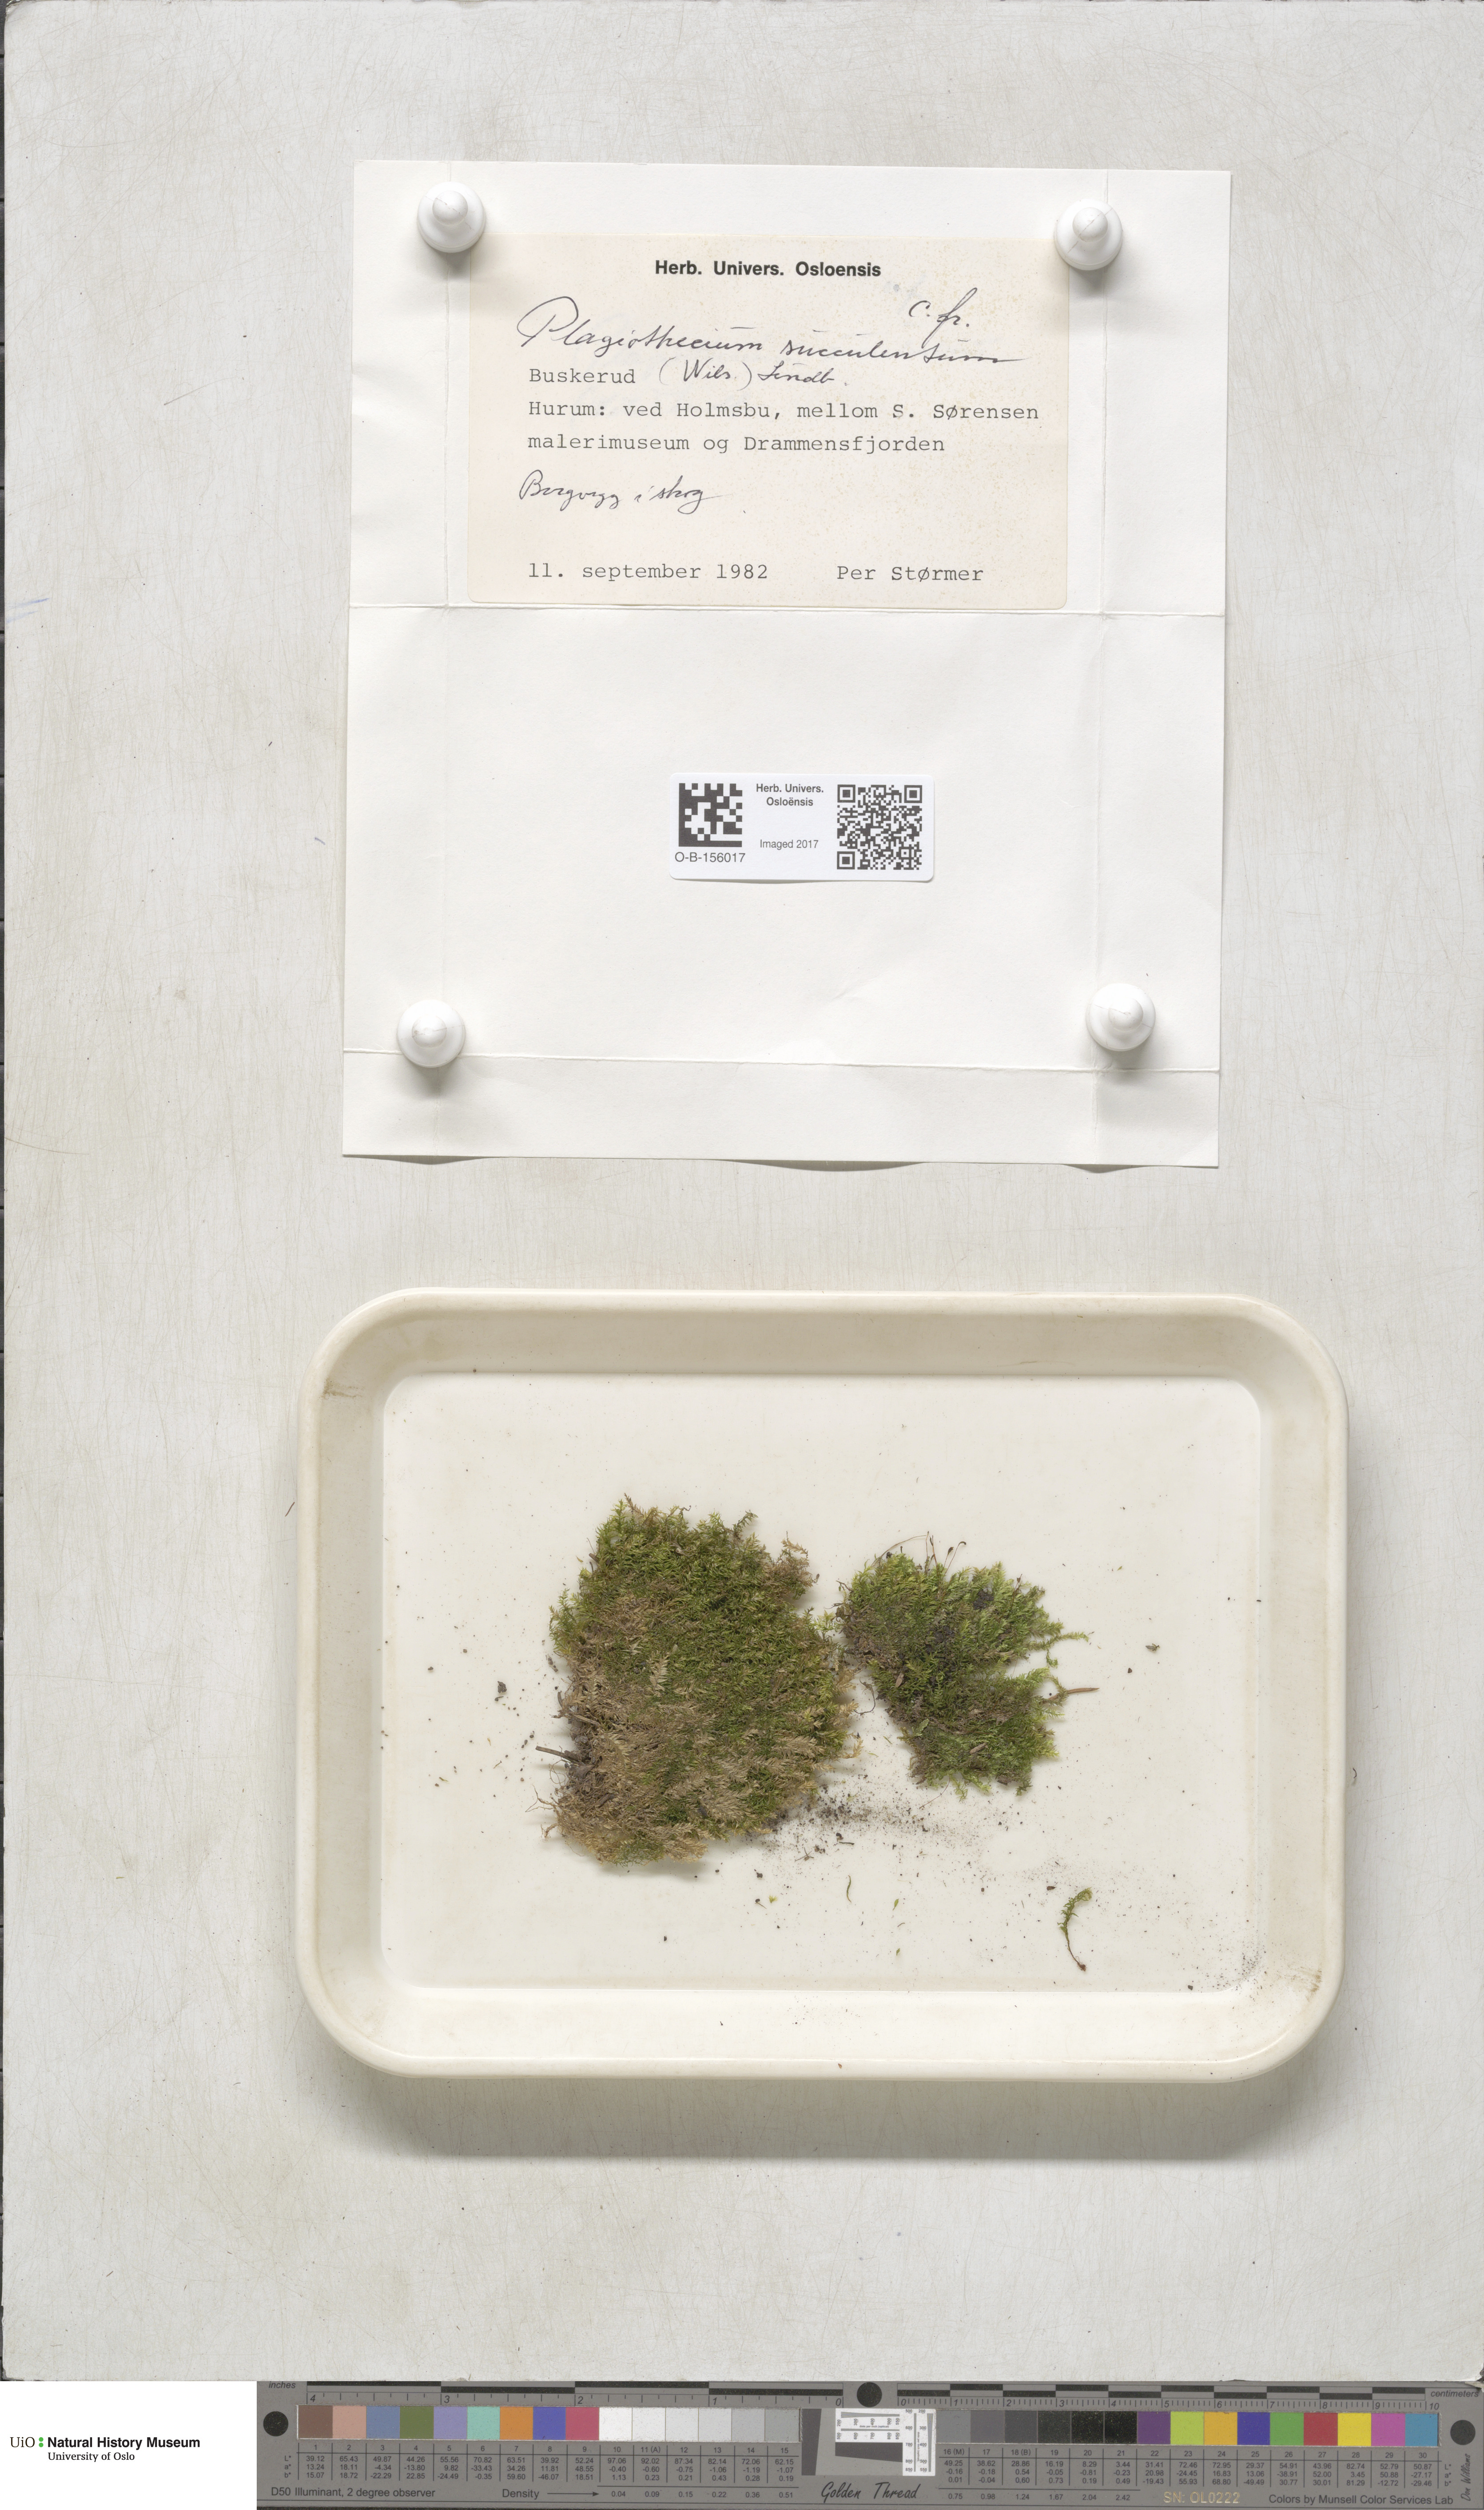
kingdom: Plantae
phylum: Bryophyta
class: Bryopsida
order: Hypnales
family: Plagiotheciaceae
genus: Plagiothecium
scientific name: Plagiothecium succulentum
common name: Juicy silk-moss
